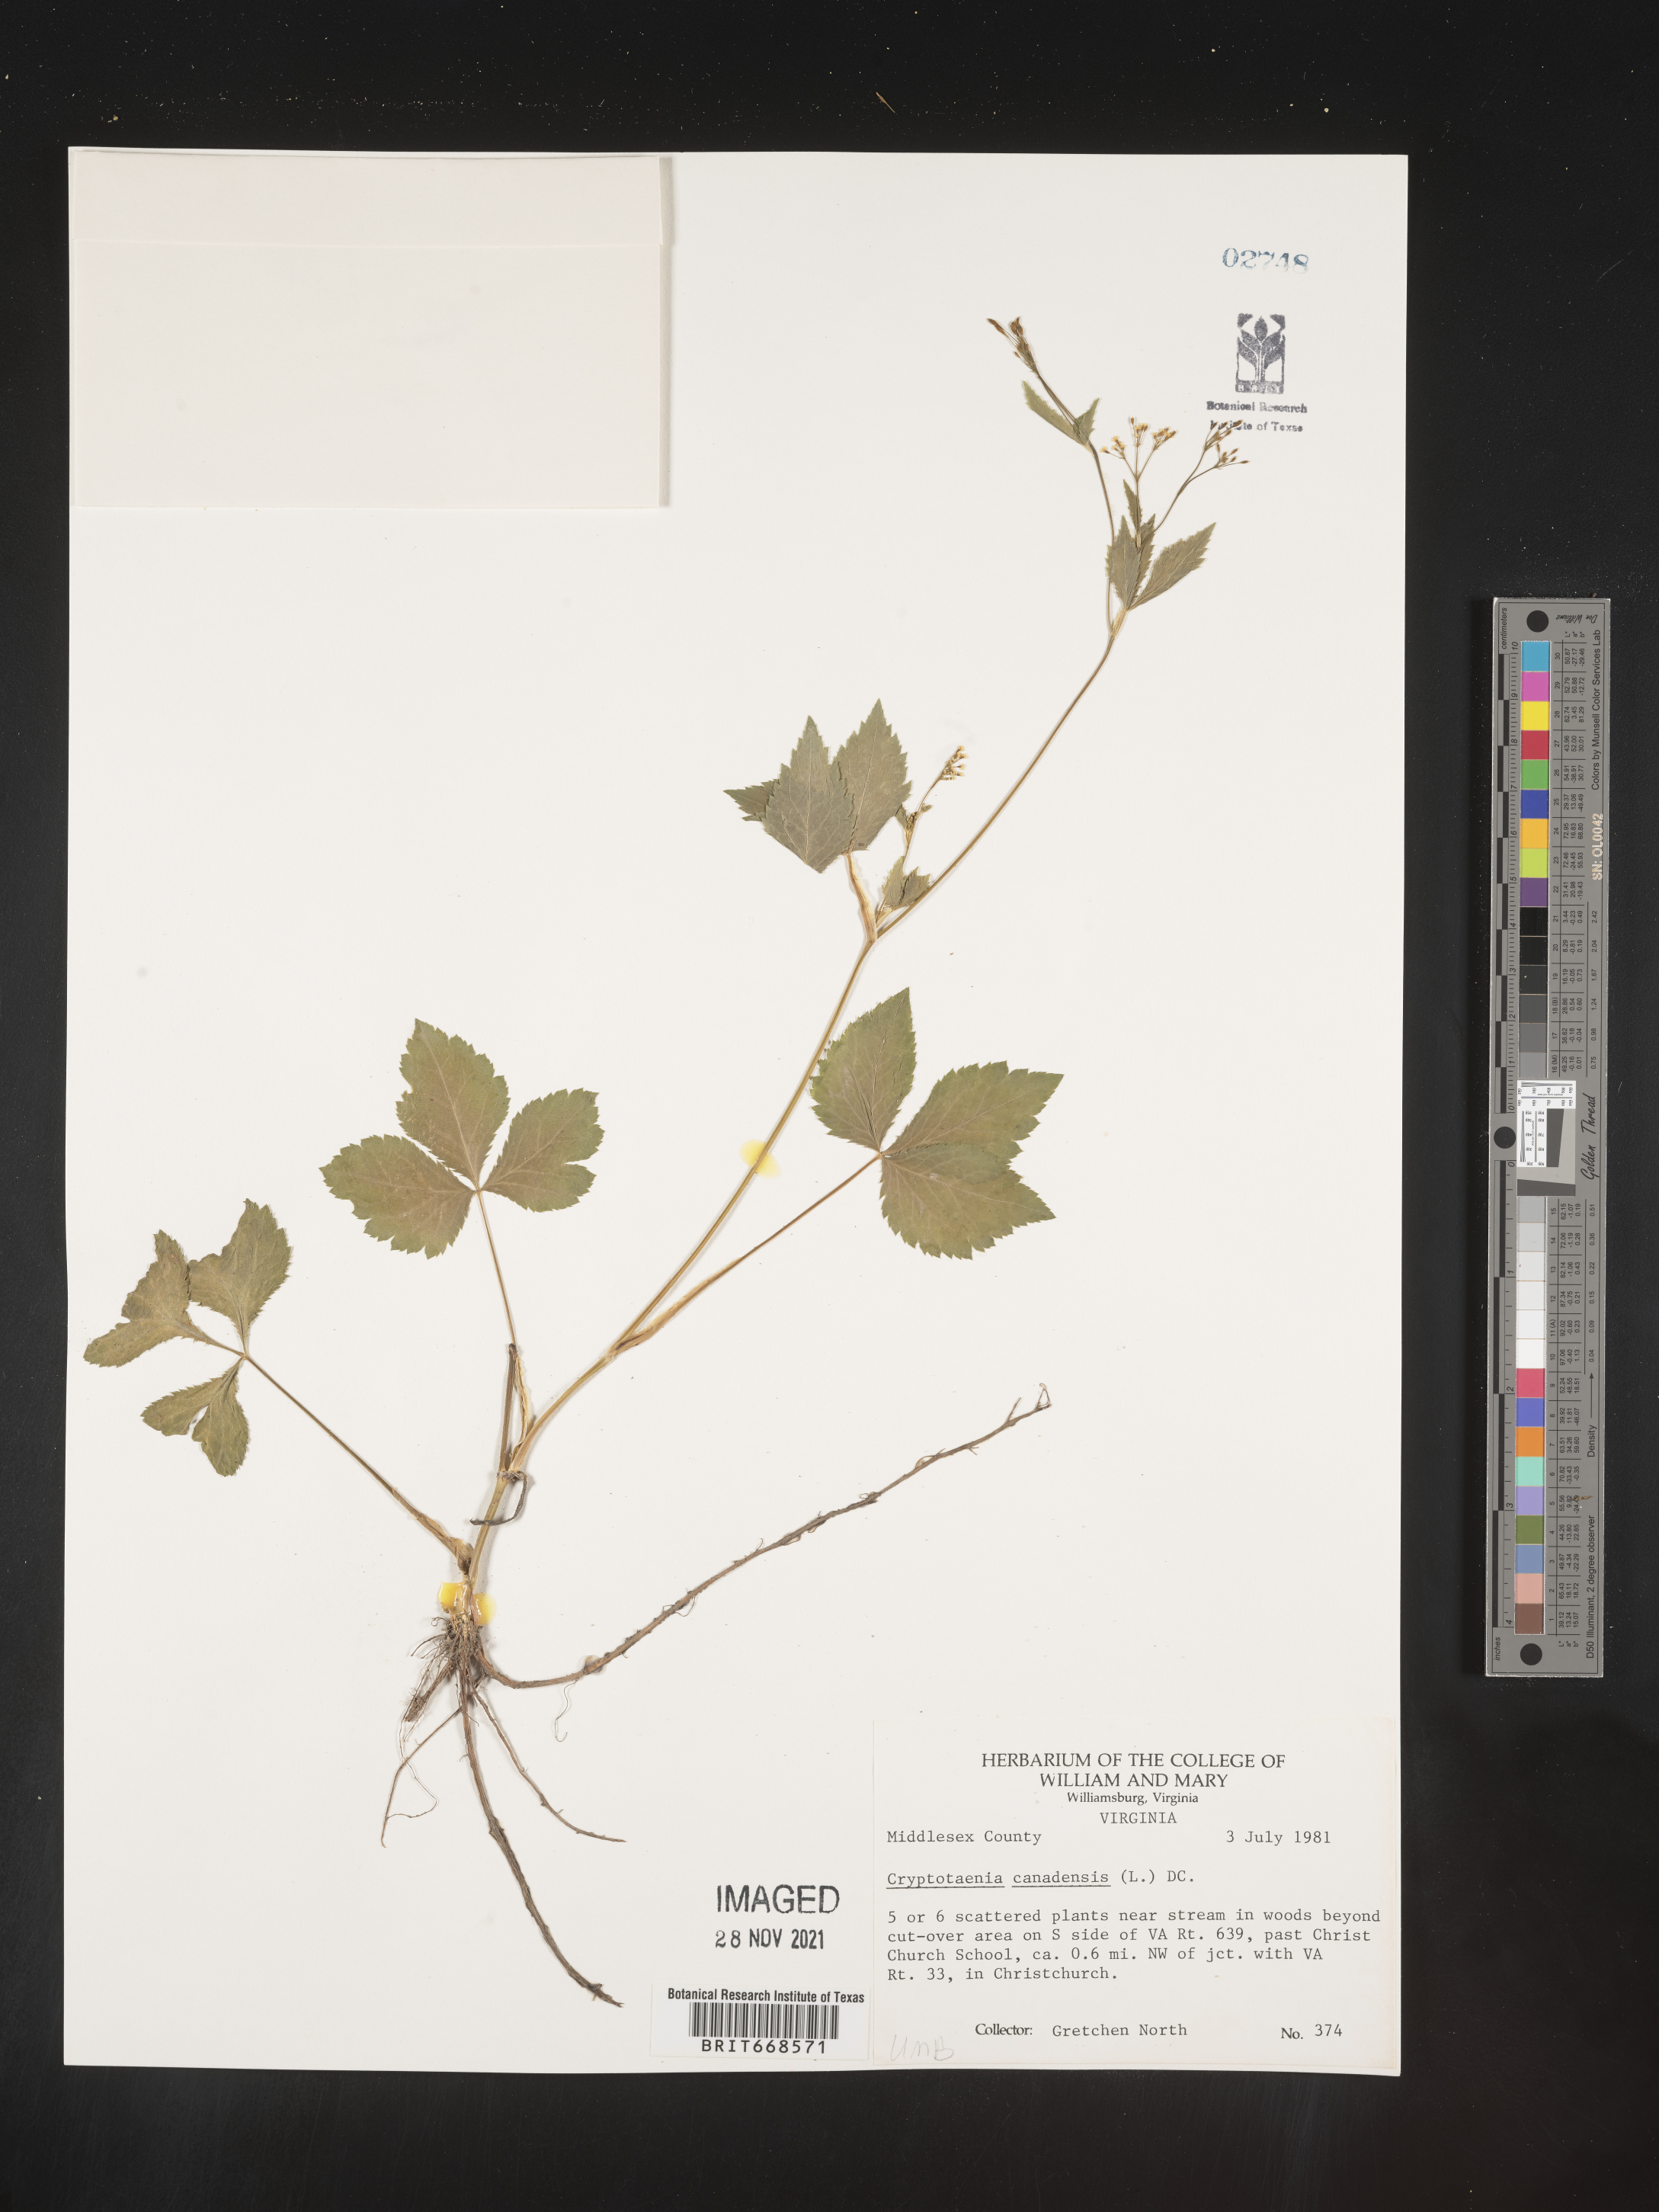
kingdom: Plantae
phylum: Tracheophyta
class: Magnoliopsida
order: Apiales
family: Apiaceae
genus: Cryptotaenia
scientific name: Cryptotaenia canadensis
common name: Honewort
